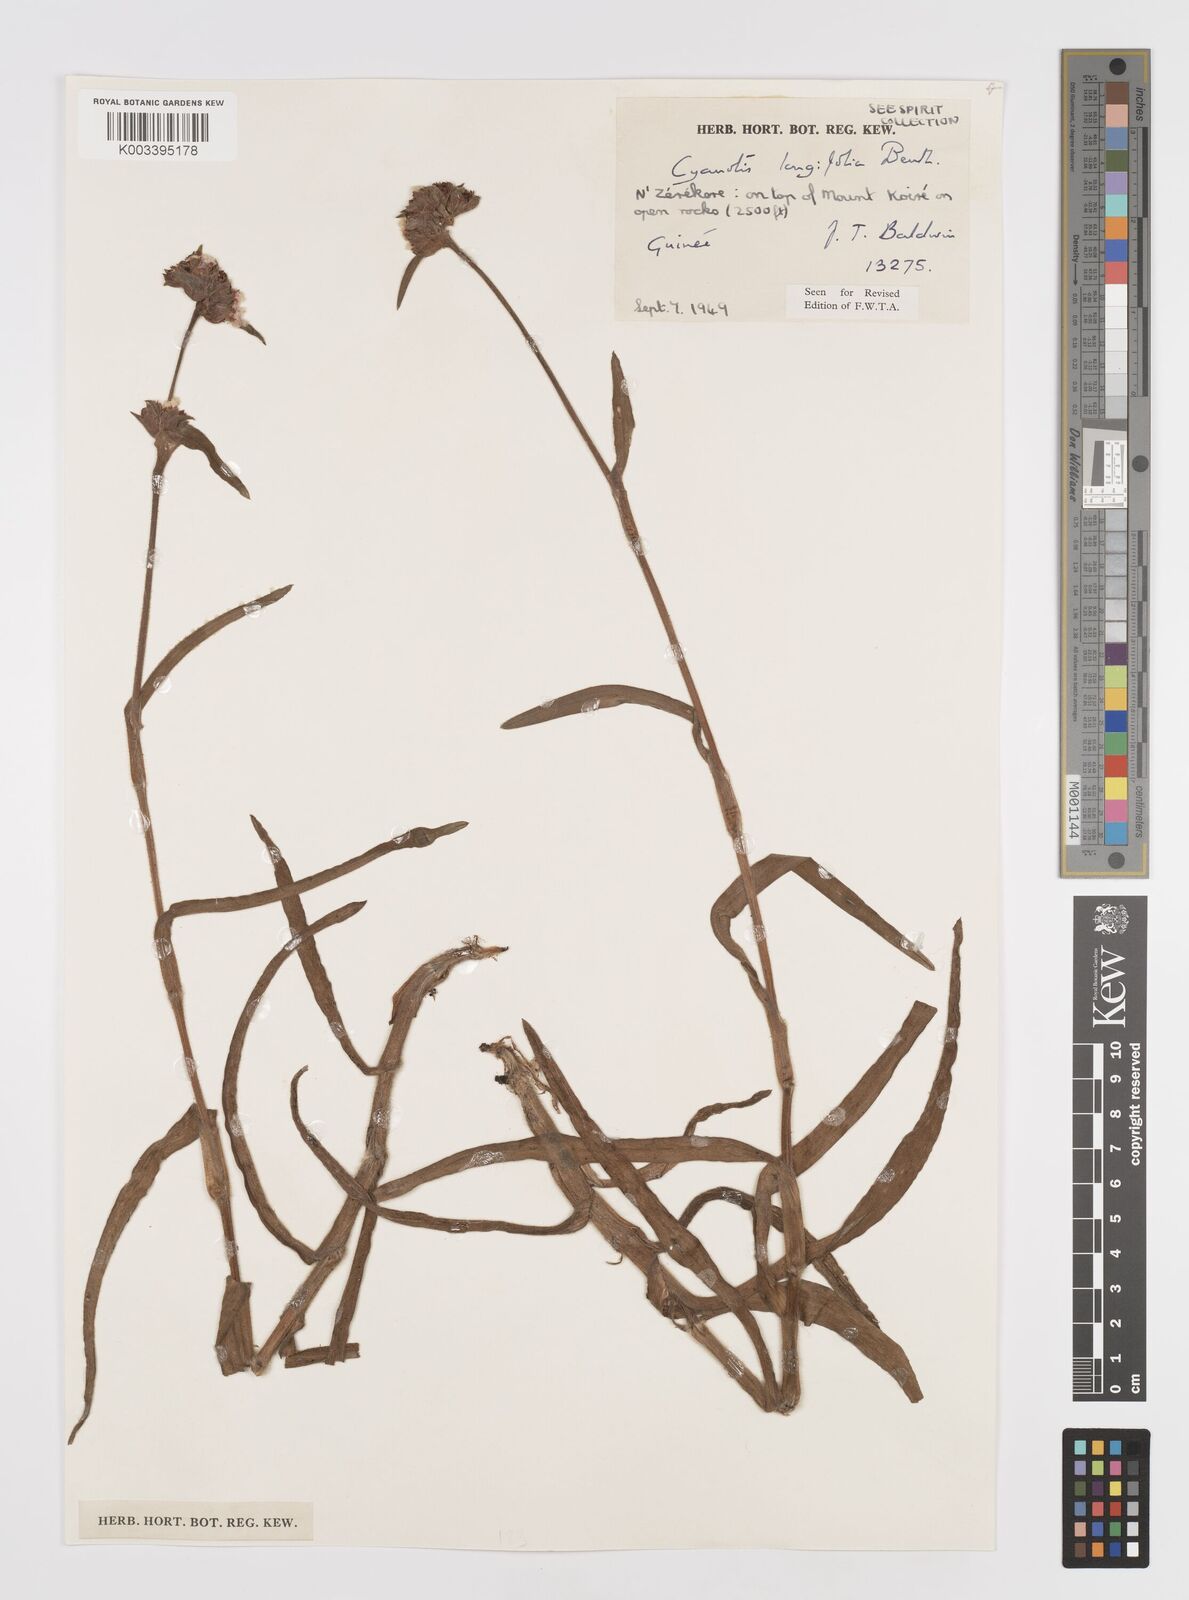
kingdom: Plantae
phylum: Tracheophyta
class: Liliopsida
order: Commelinales
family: Commelinaceae
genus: Cyanotis
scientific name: Cyanotis
